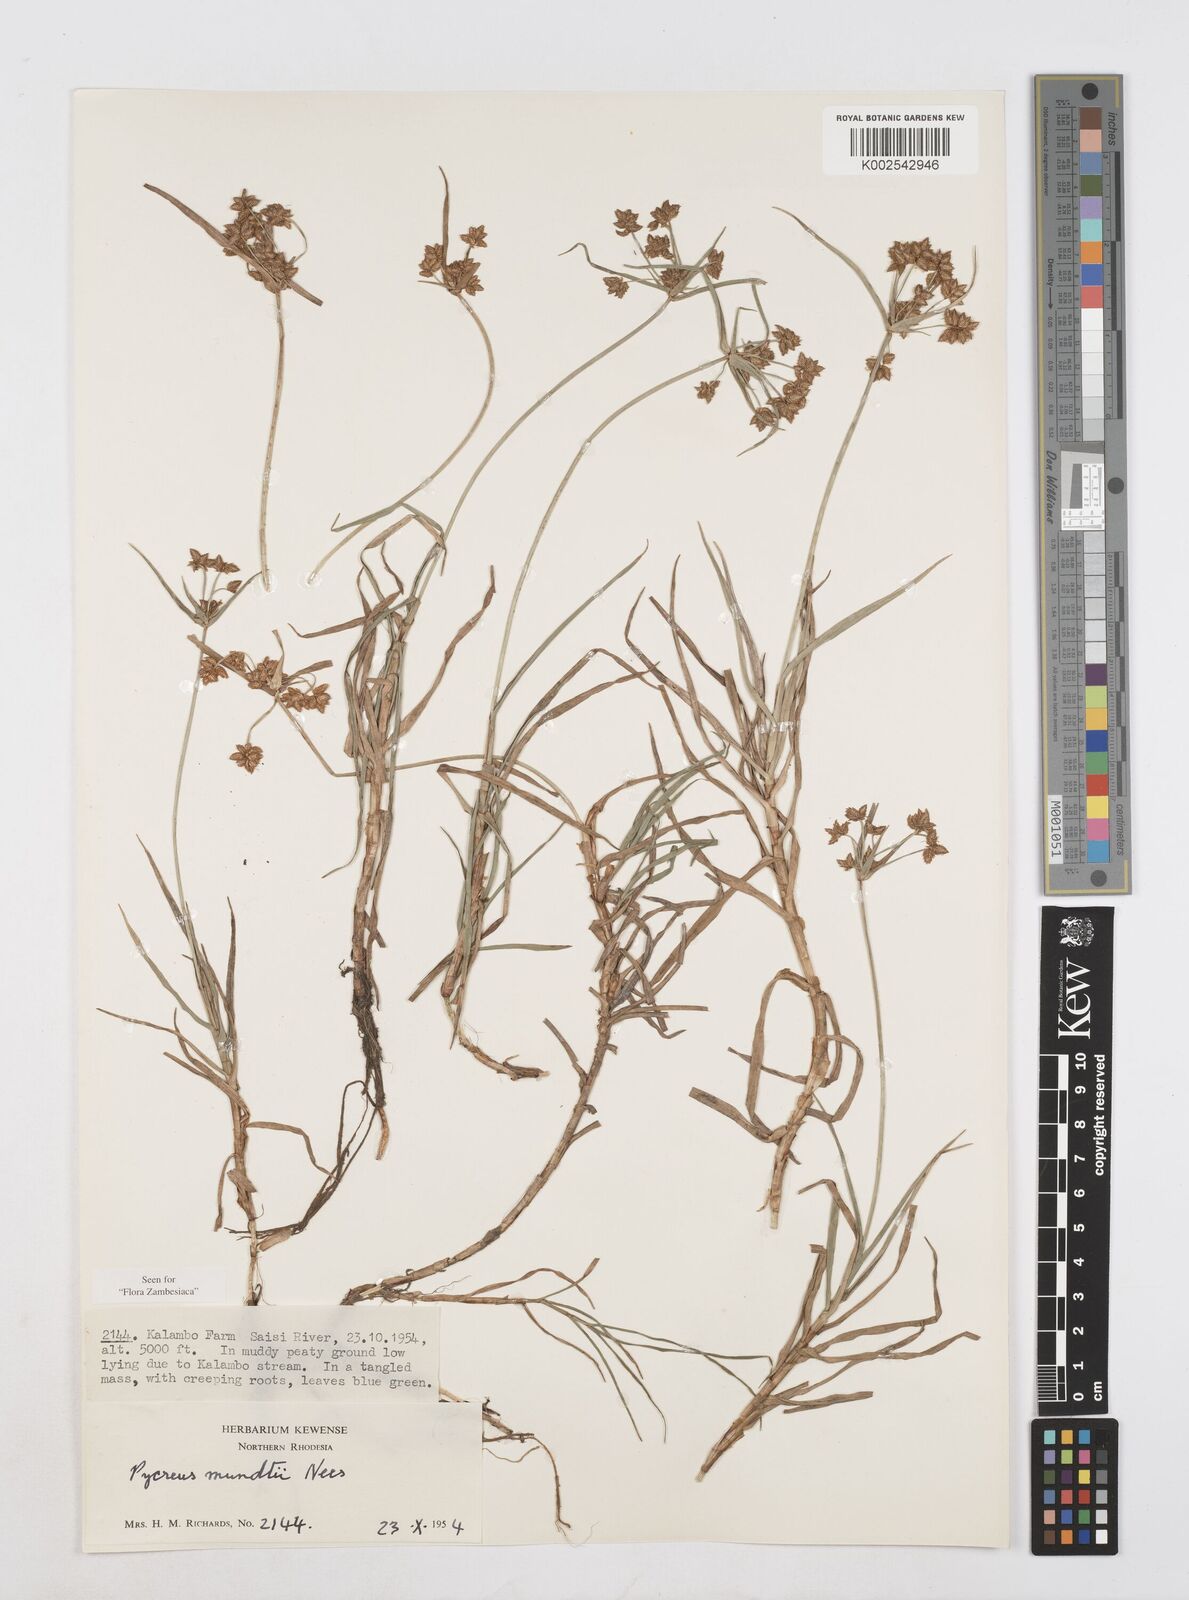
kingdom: Plantae
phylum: Tracheophyta
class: Liliopsida
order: Poales
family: Cyperaceae
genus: Cyperus
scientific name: Cyperus mundii
